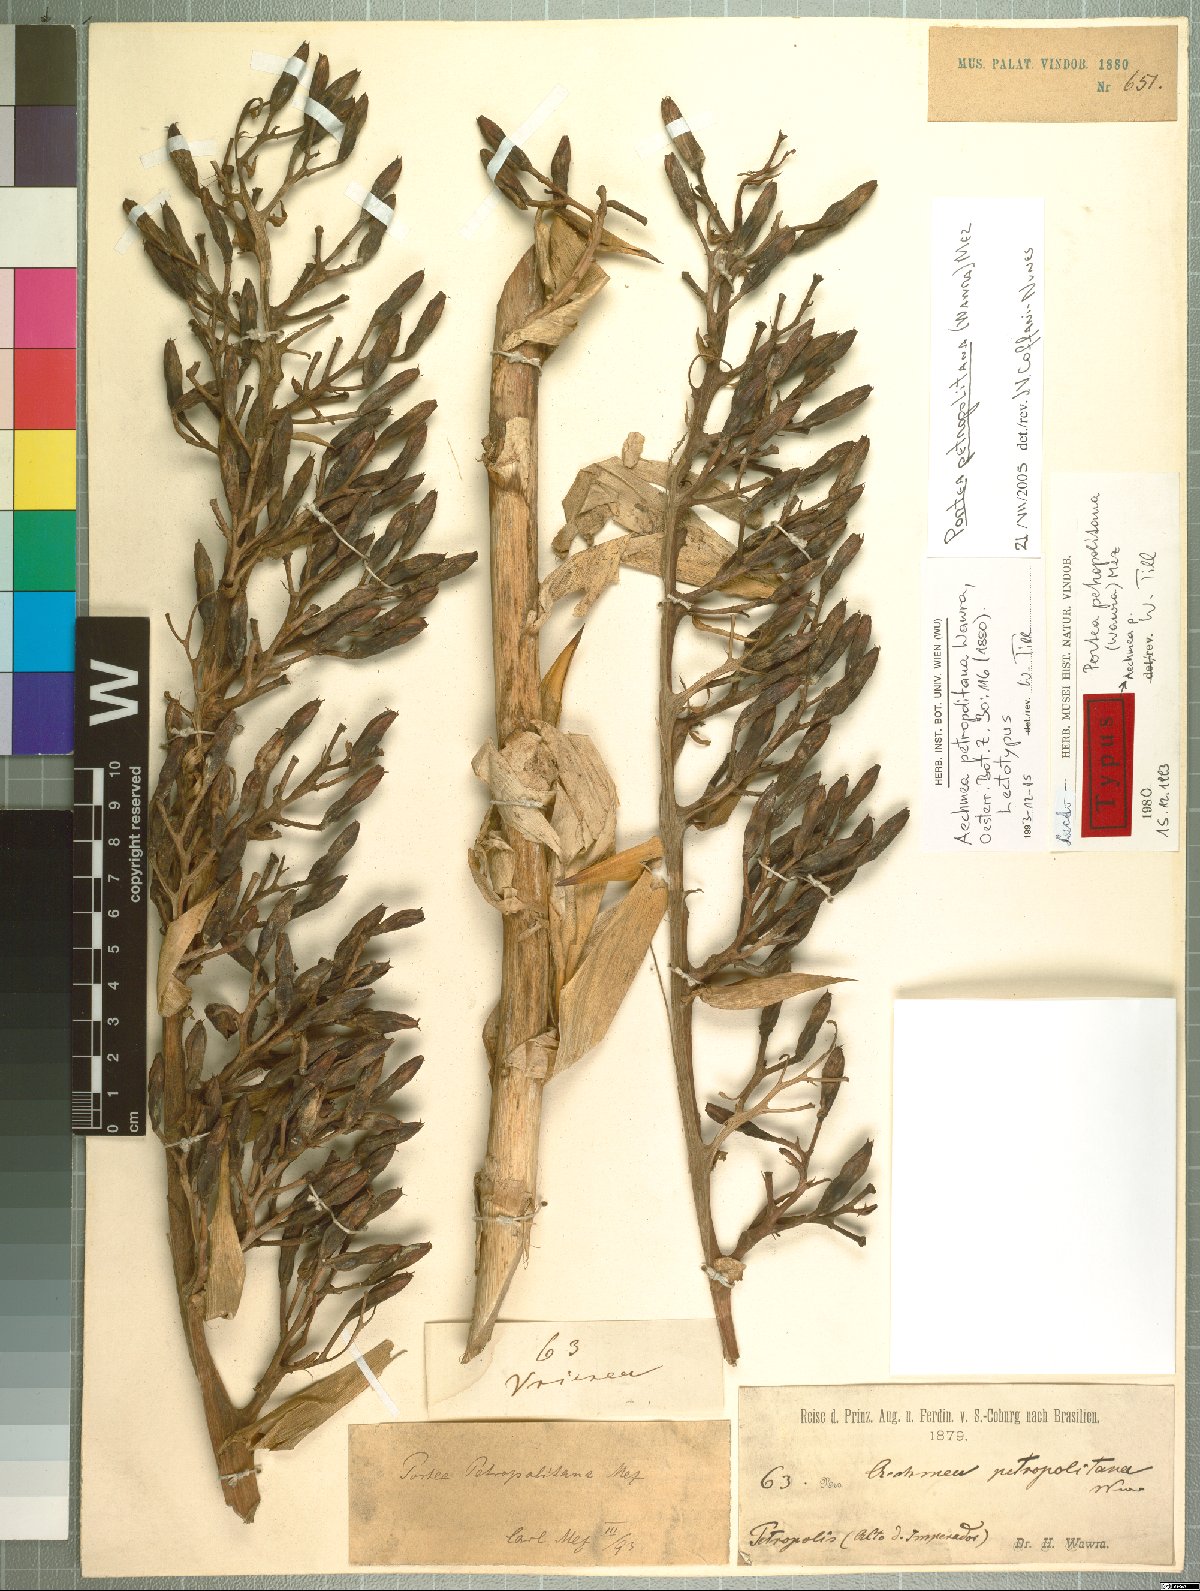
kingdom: Plantae
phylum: Tracheophyta
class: Liliopsida
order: Poales
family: Bromeliaceae
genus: Portea
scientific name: Portea petropolitana
